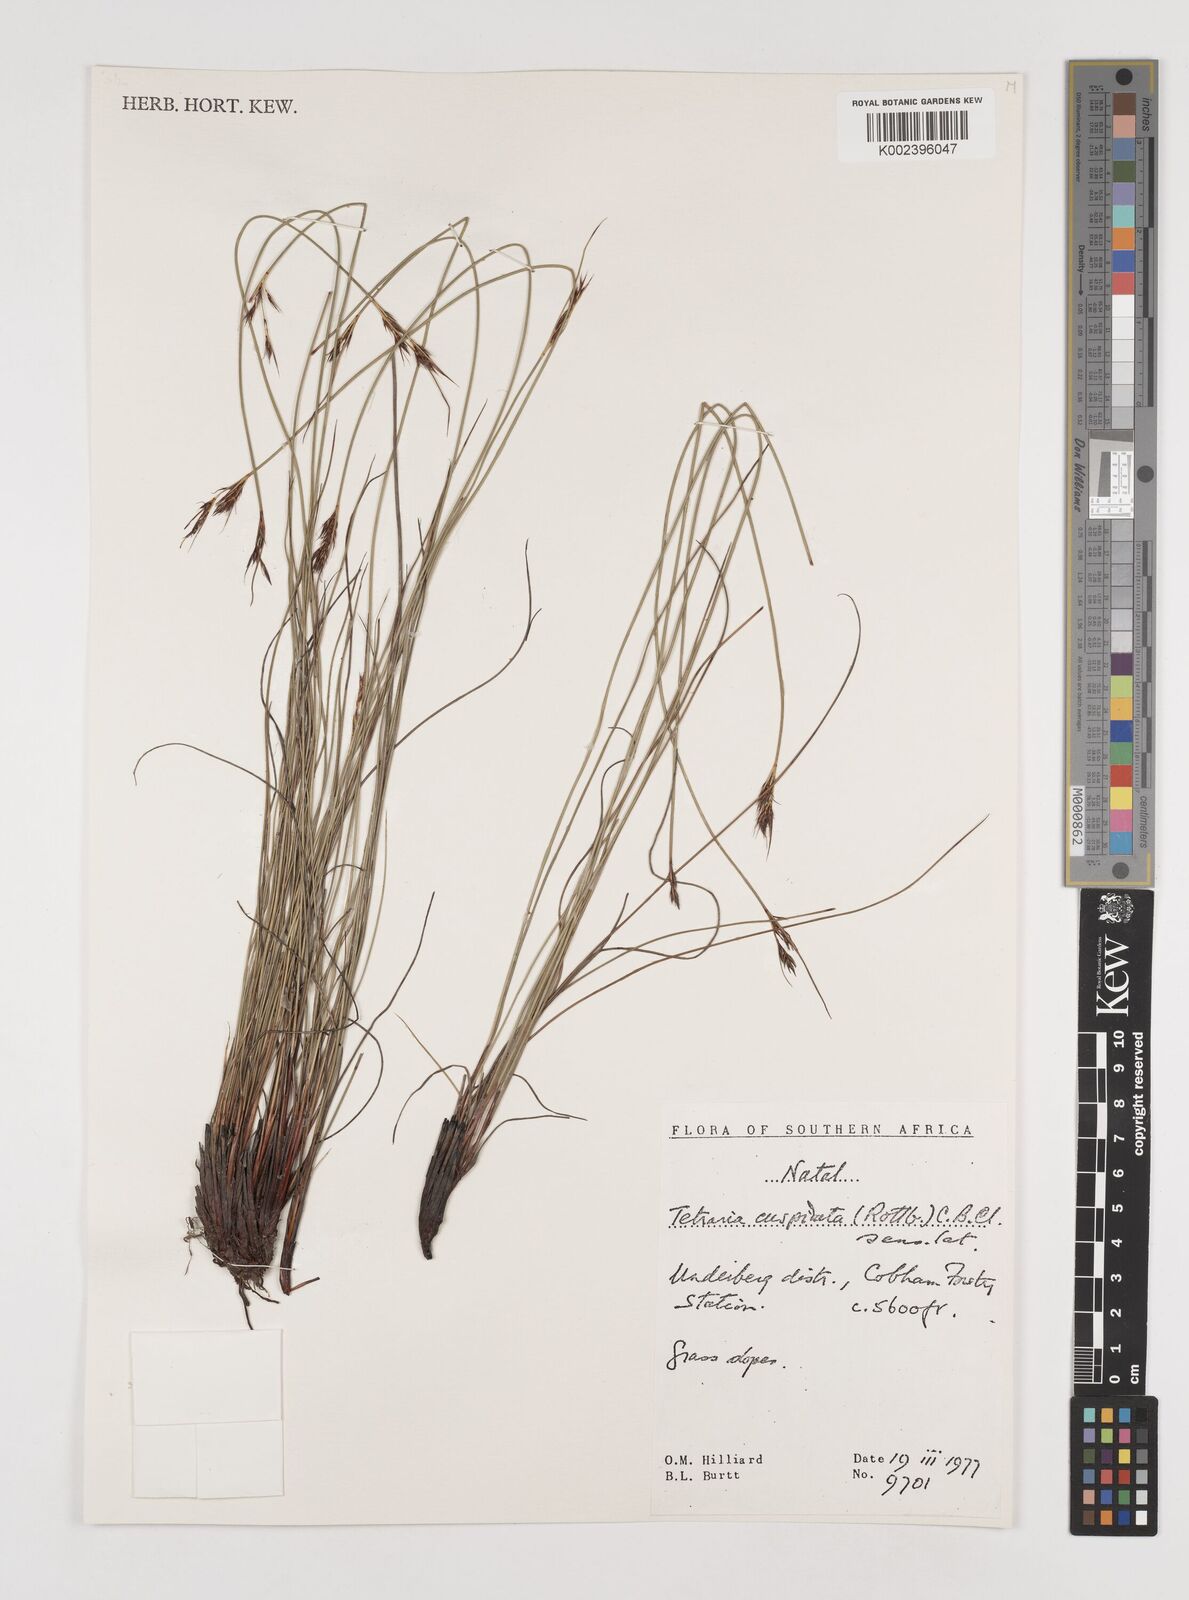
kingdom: Plantae
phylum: Tracheophyta
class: Liliopsida
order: Poales
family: Cyperaceae
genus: Schoenus
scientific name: Schoenus cuspidatus
